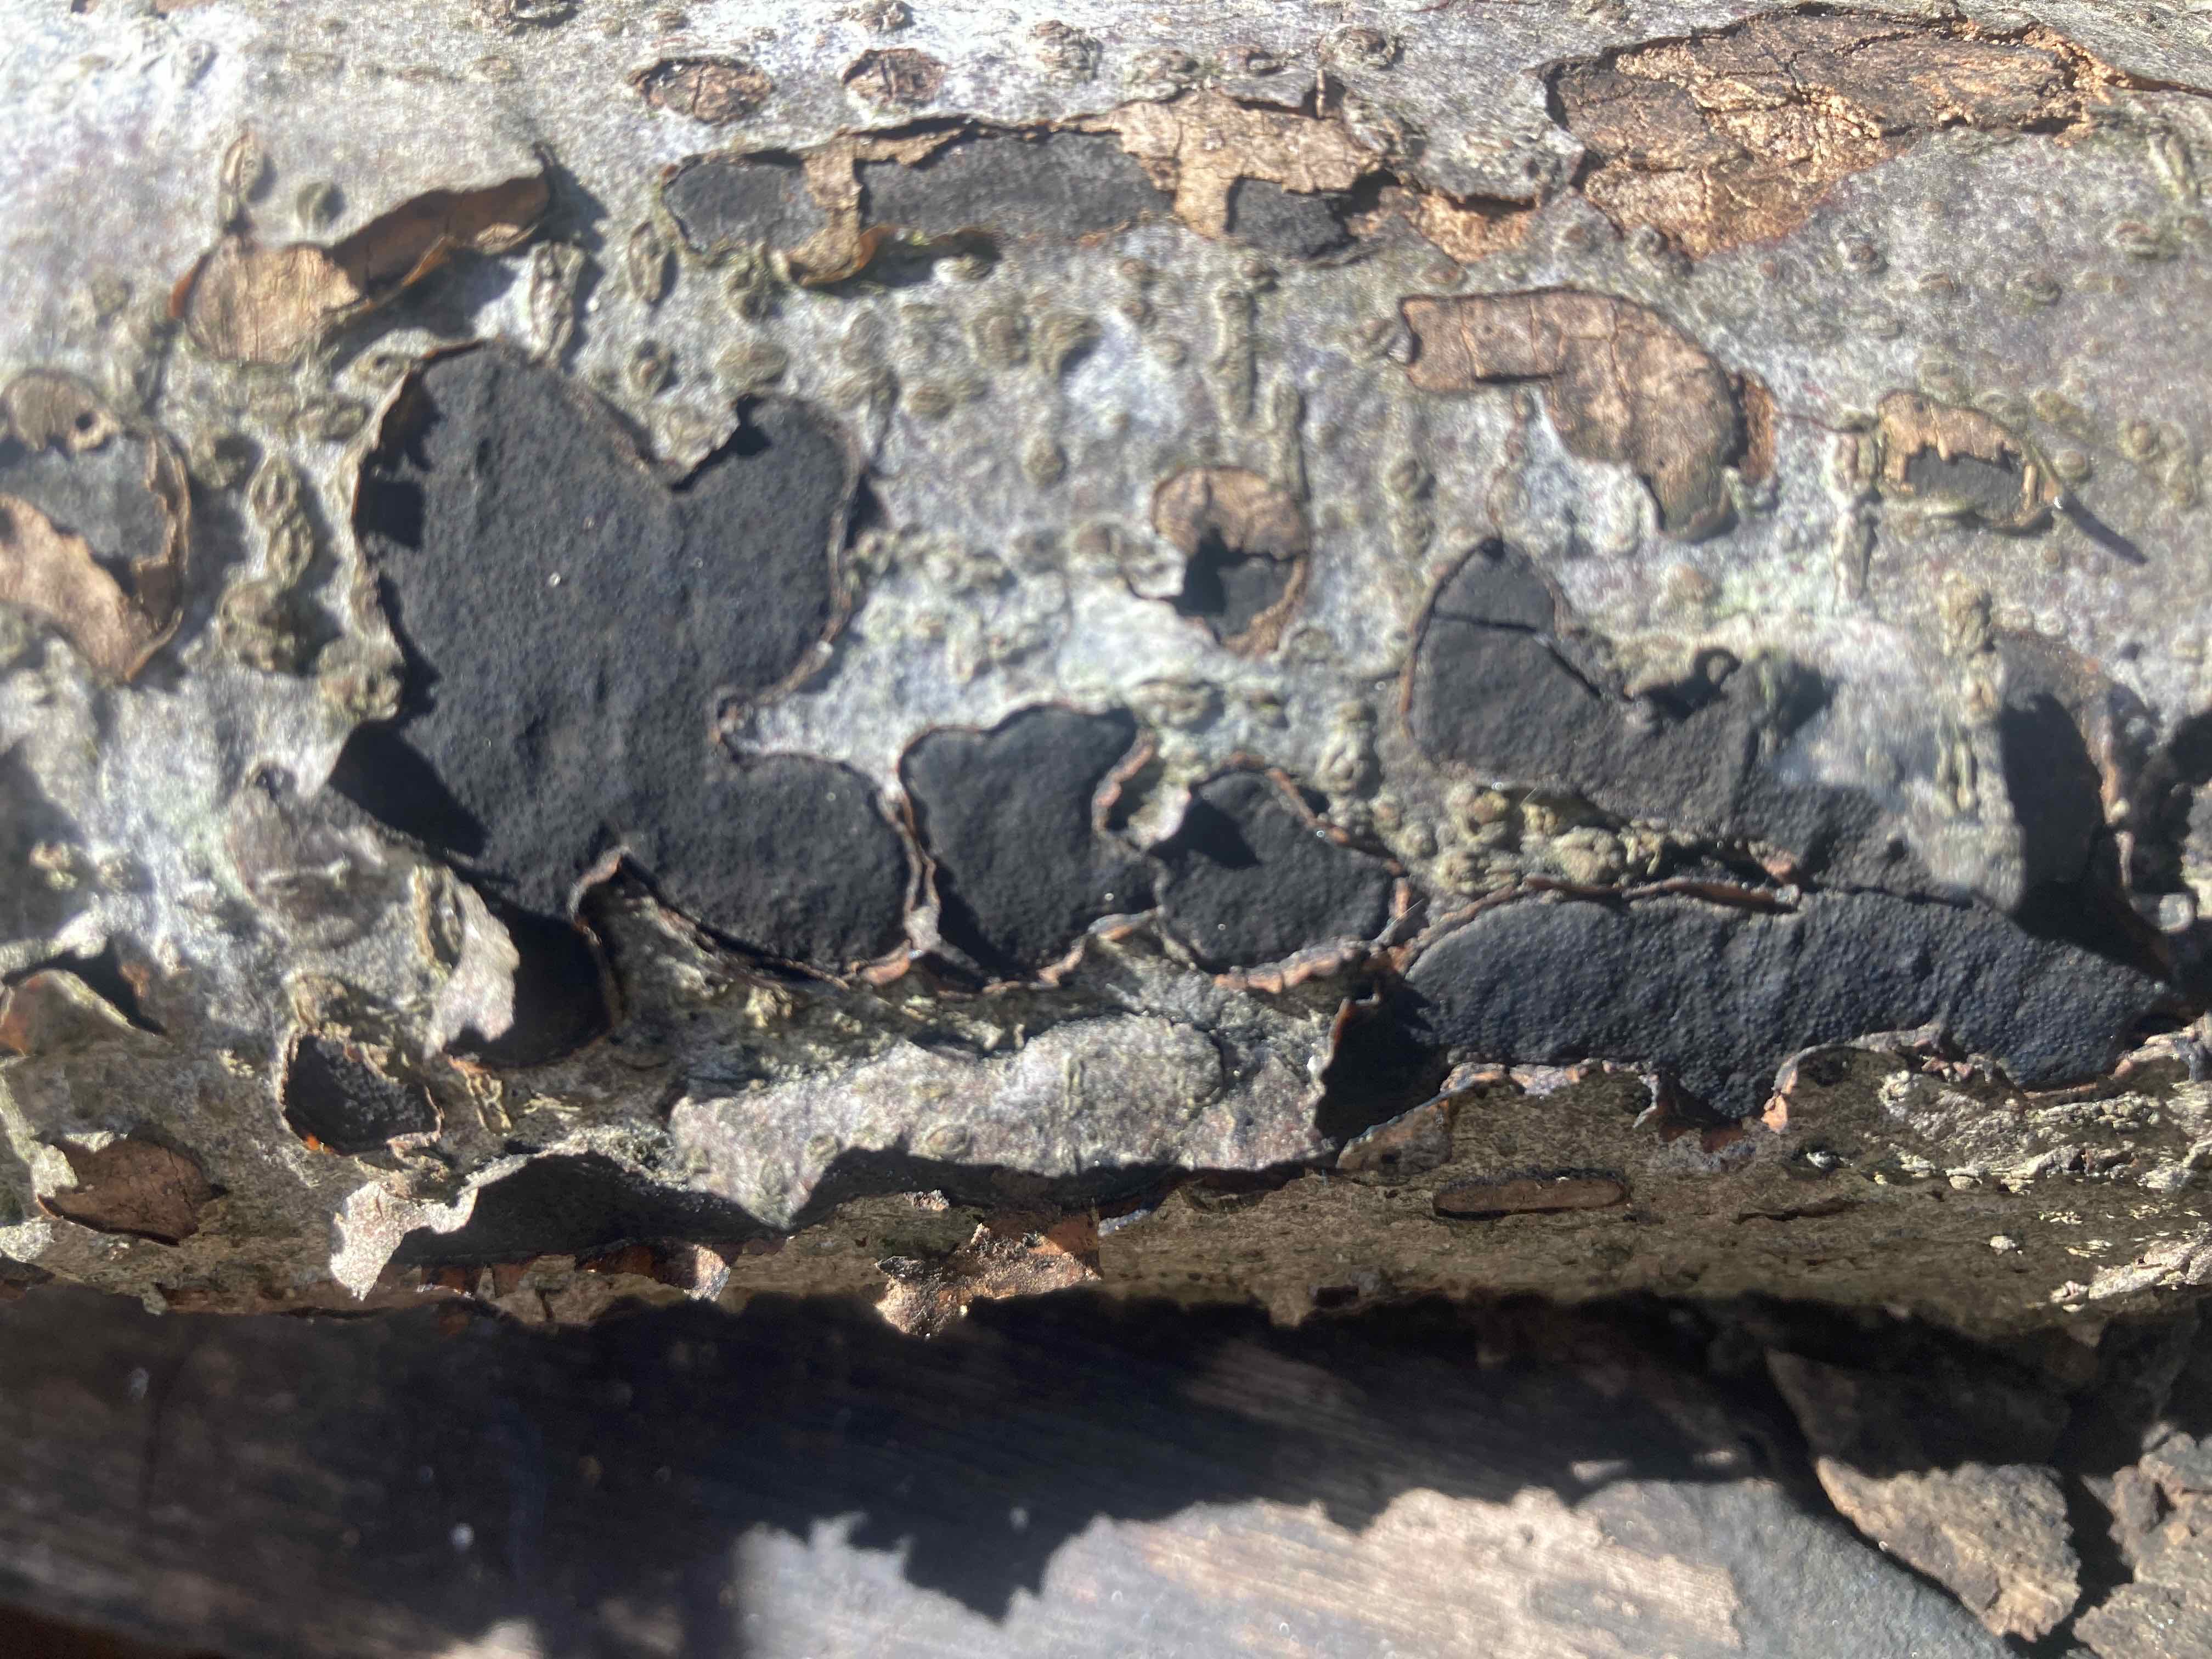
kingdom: Fungi
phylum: Ascomycota
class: Sordariomycetes
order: Xylariales
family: Graphostromataceae
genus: Biscogniauxia
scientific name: Biscogniauxia nummularia
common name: bøge-kulskive
